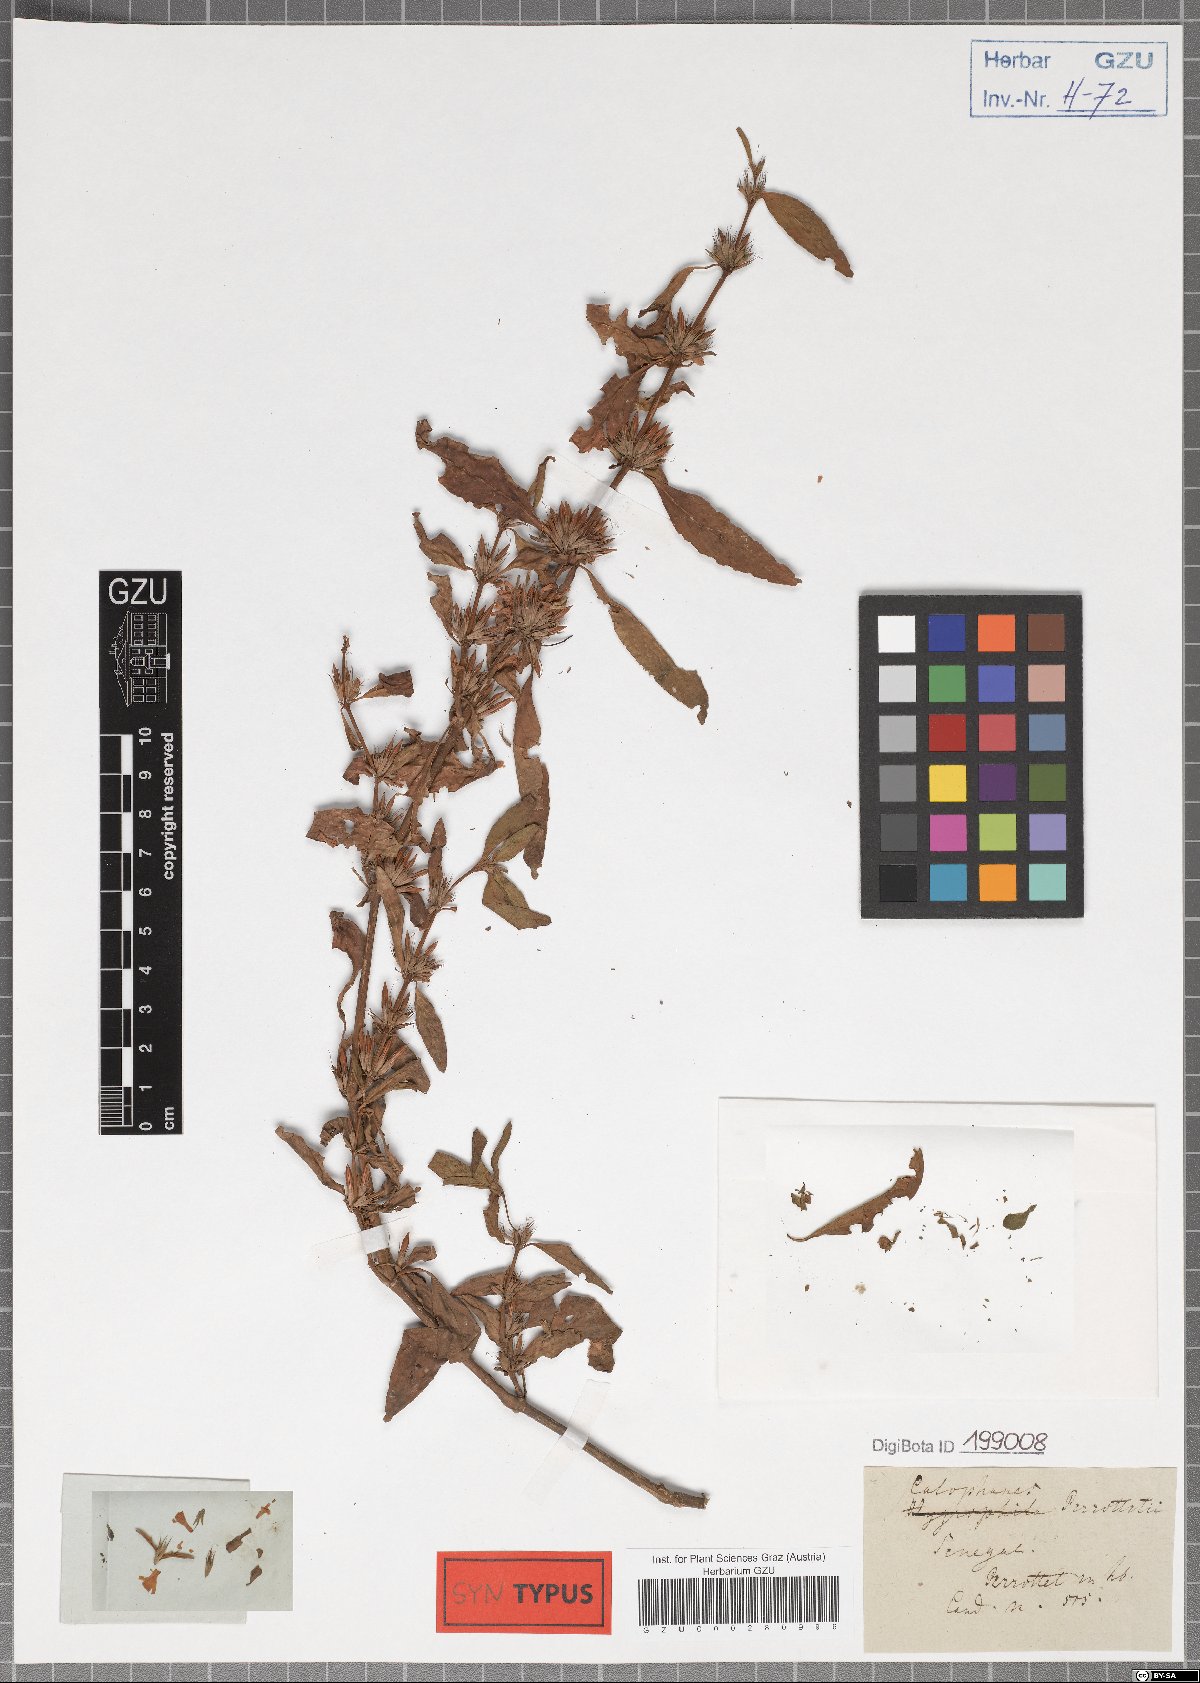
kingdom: Plantae
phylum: Tracheophyta
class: Magnoliopsida
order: Lamiales
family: Acanthaceae
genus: Dyschoriste
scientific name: Dyschoriste nagchana
